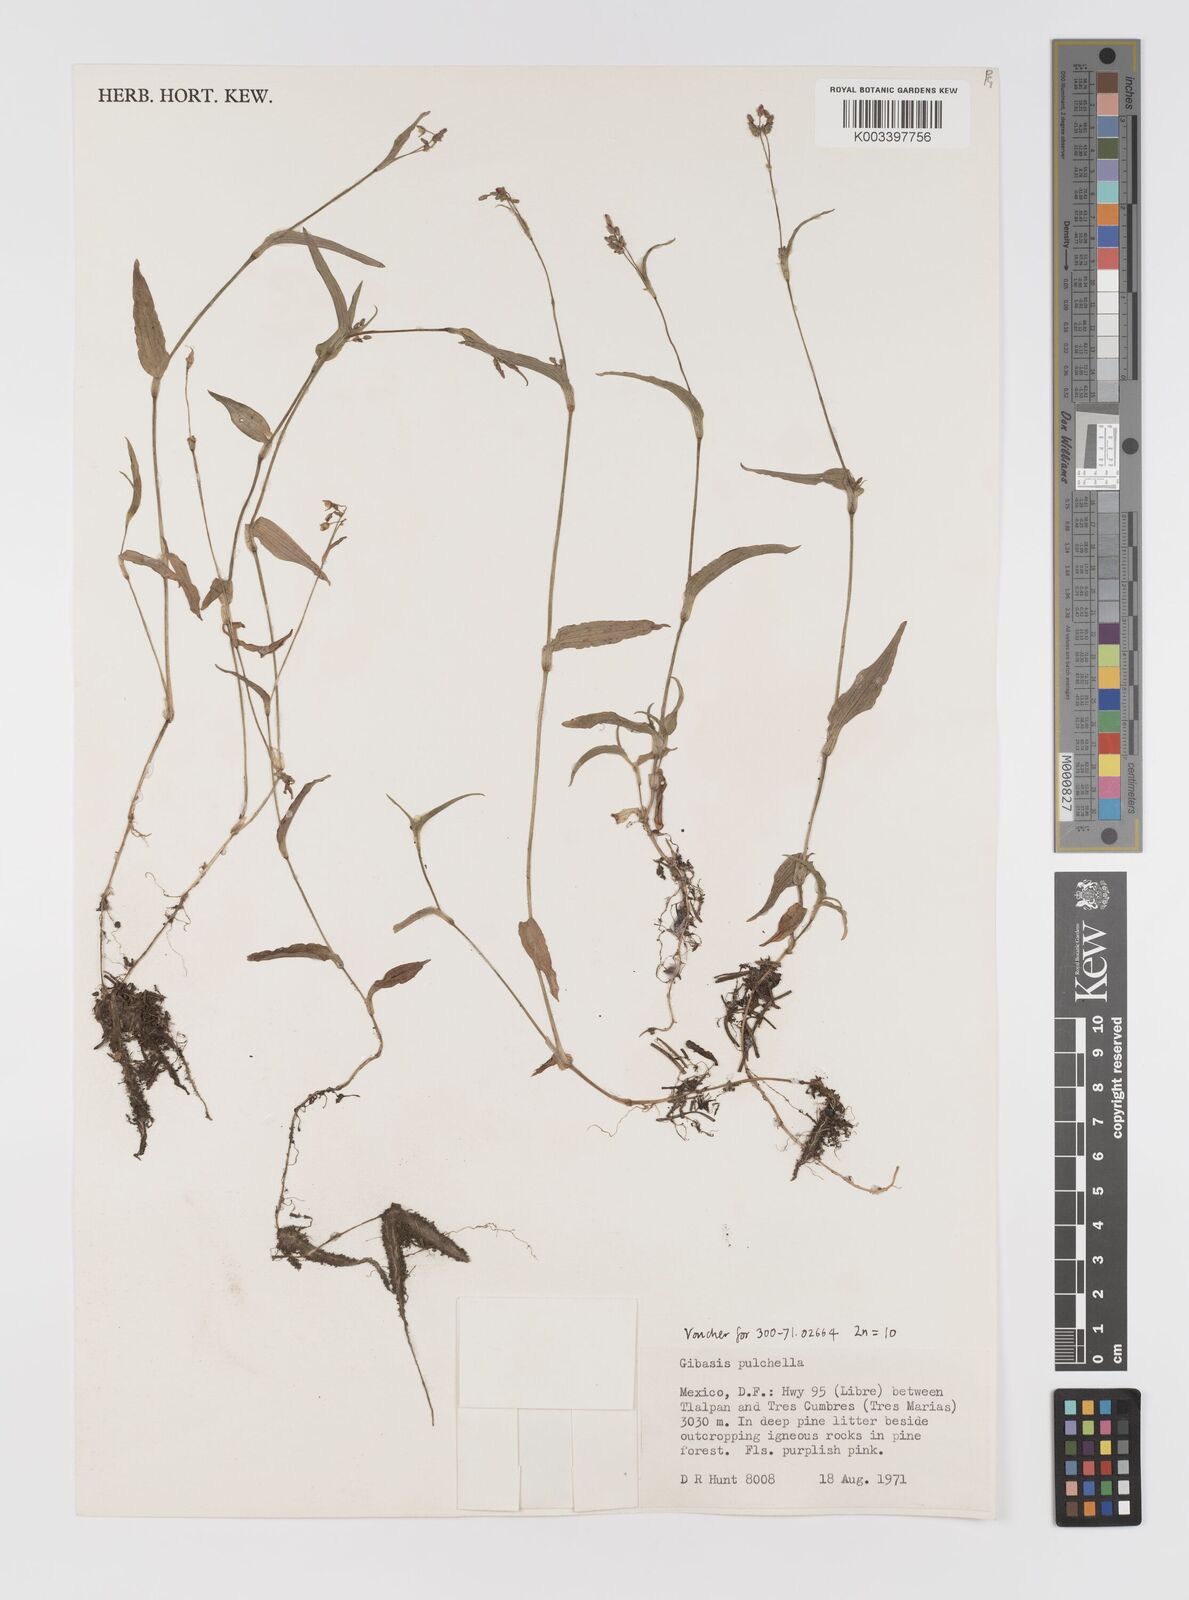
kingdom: Plantae
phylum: Tracheophyta
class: Liliopsida
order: Commelinales
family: Commelinaceae
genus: Gibasis
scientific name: Gibasis pulchella
